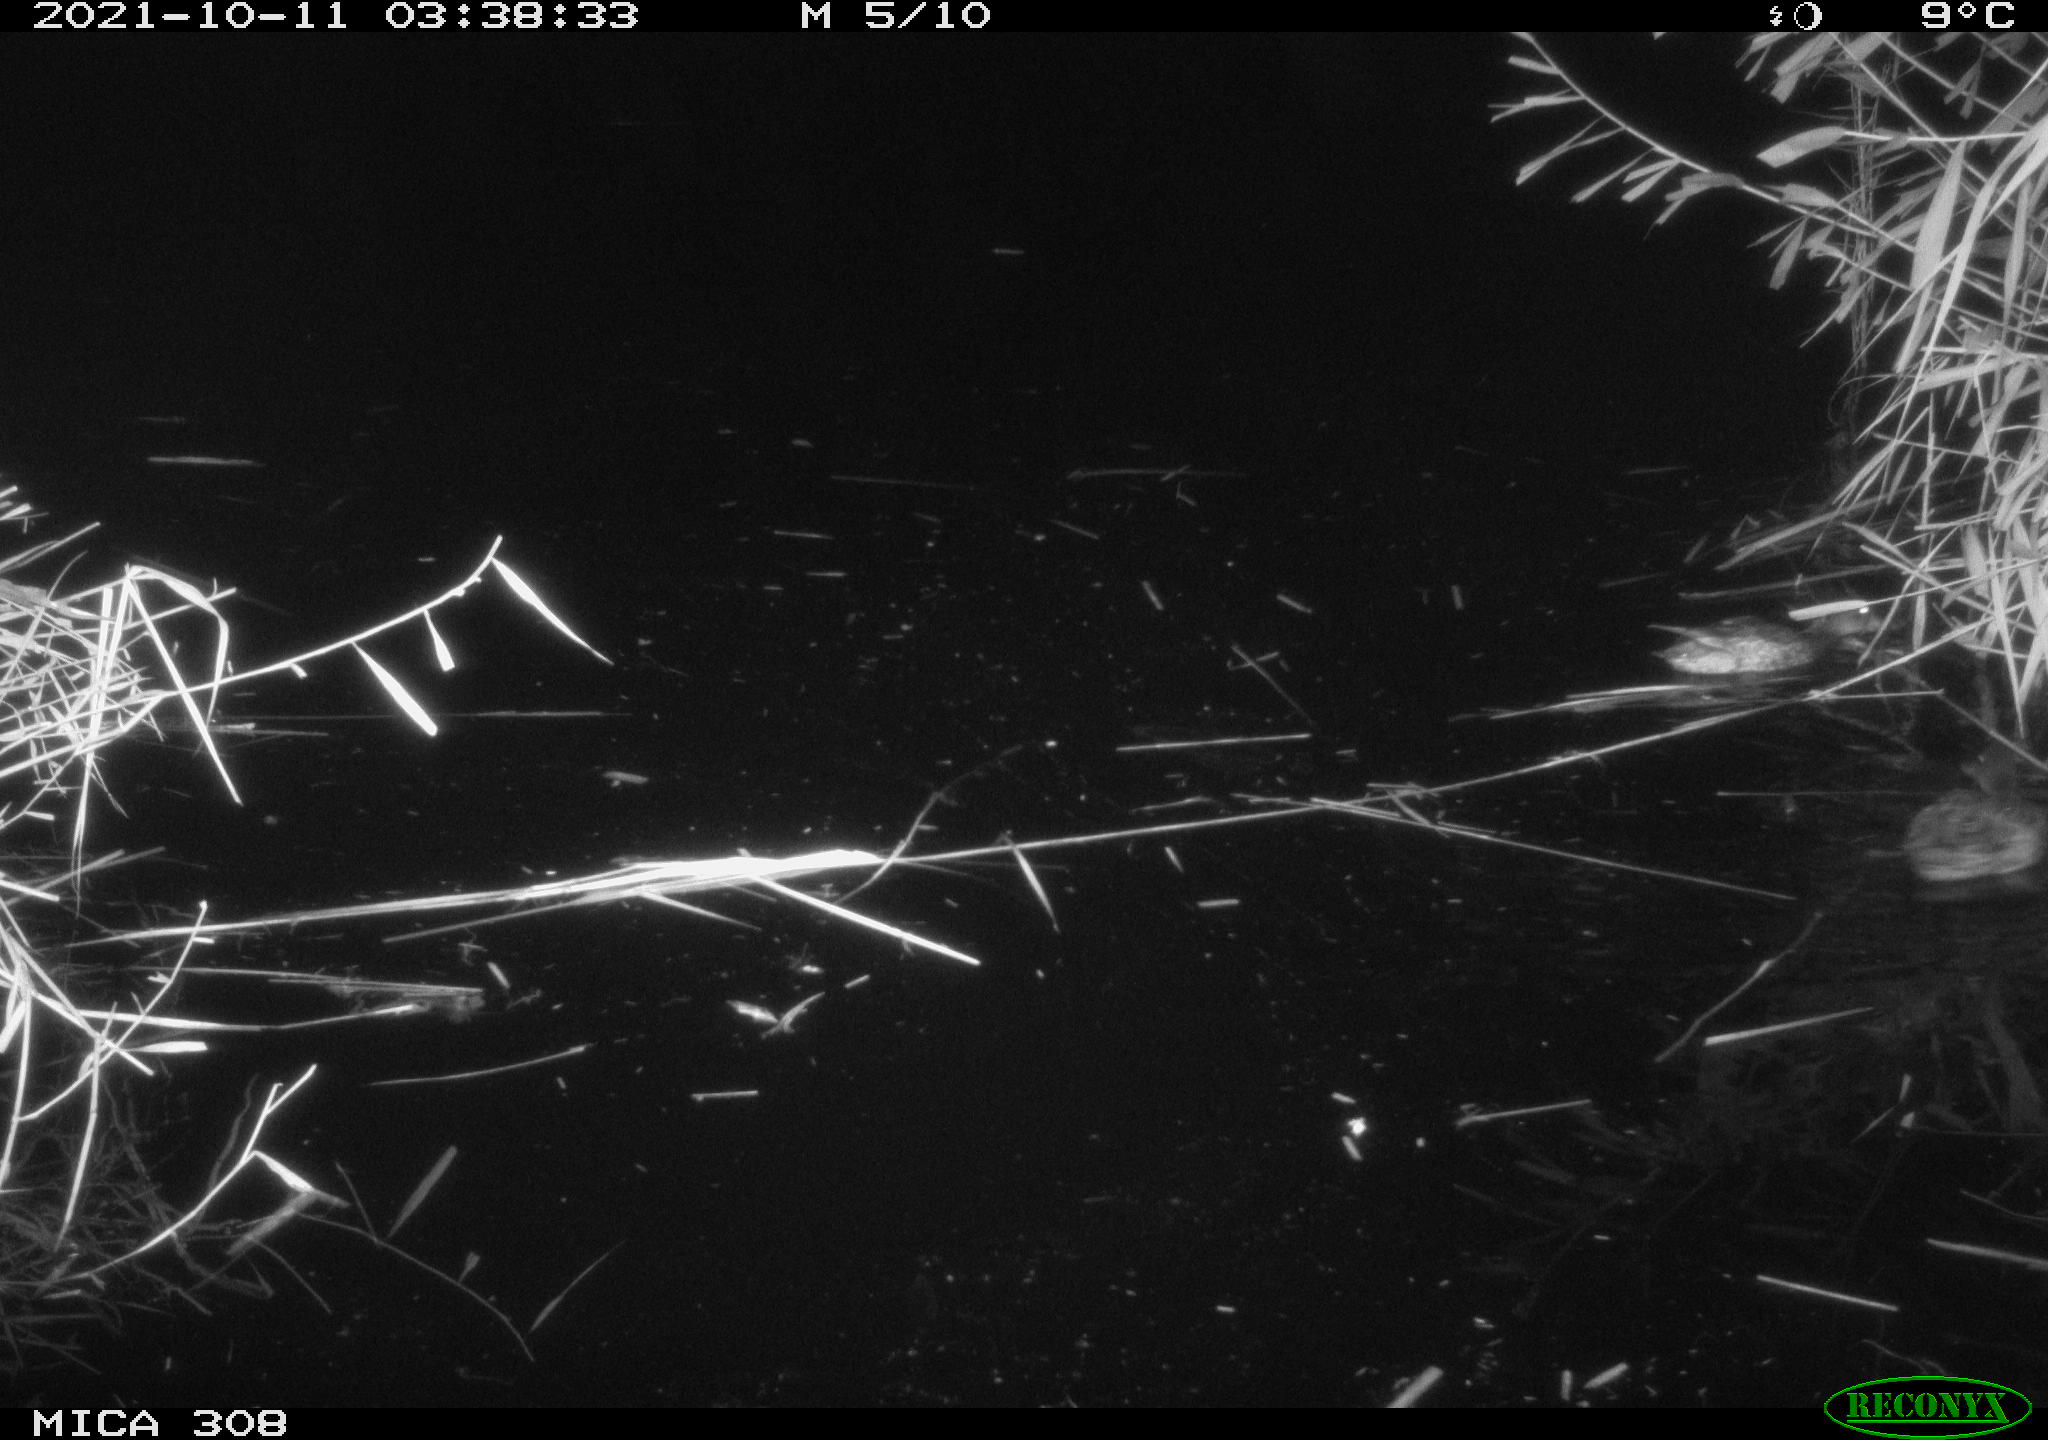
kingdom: Animalia
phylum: Chordata
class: Aves
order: Anseriformes
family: Anatidae
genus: Spatula
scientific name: Spatula clypeata
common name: Northern shoveler
